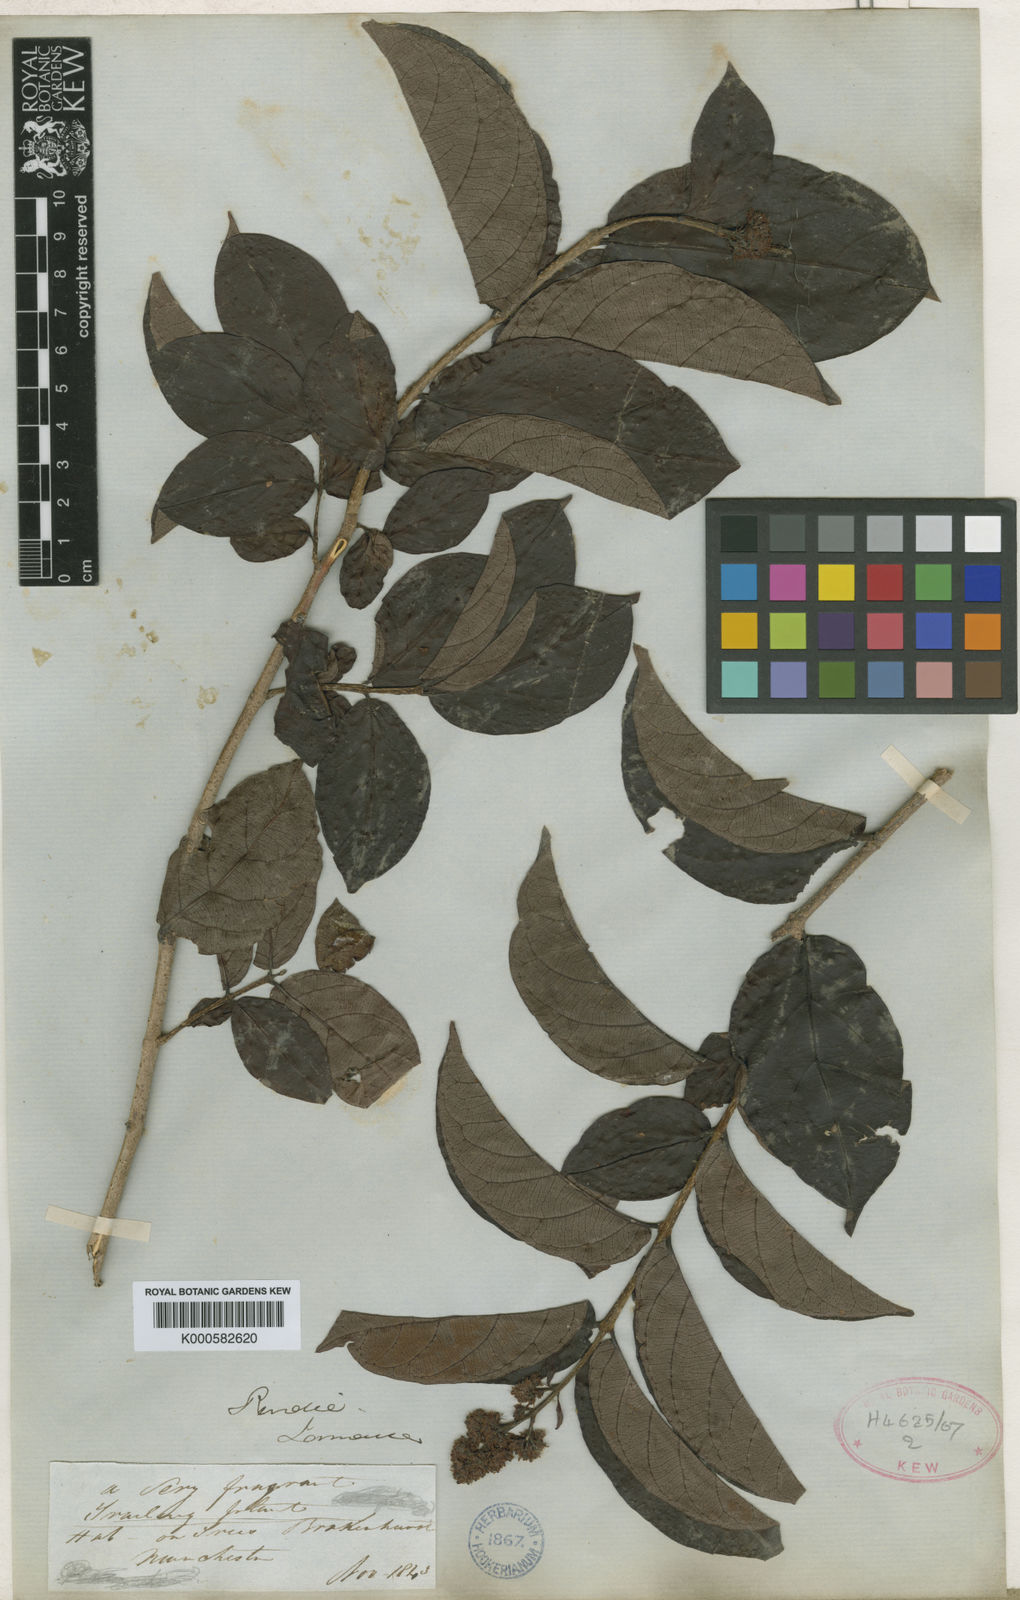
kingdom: Plantae
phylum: Tracheophyta
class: Magnoliopsida
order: Gentianales
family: Apocynaceae
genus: Forsteronia
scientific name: Forsteronia wilsonii
